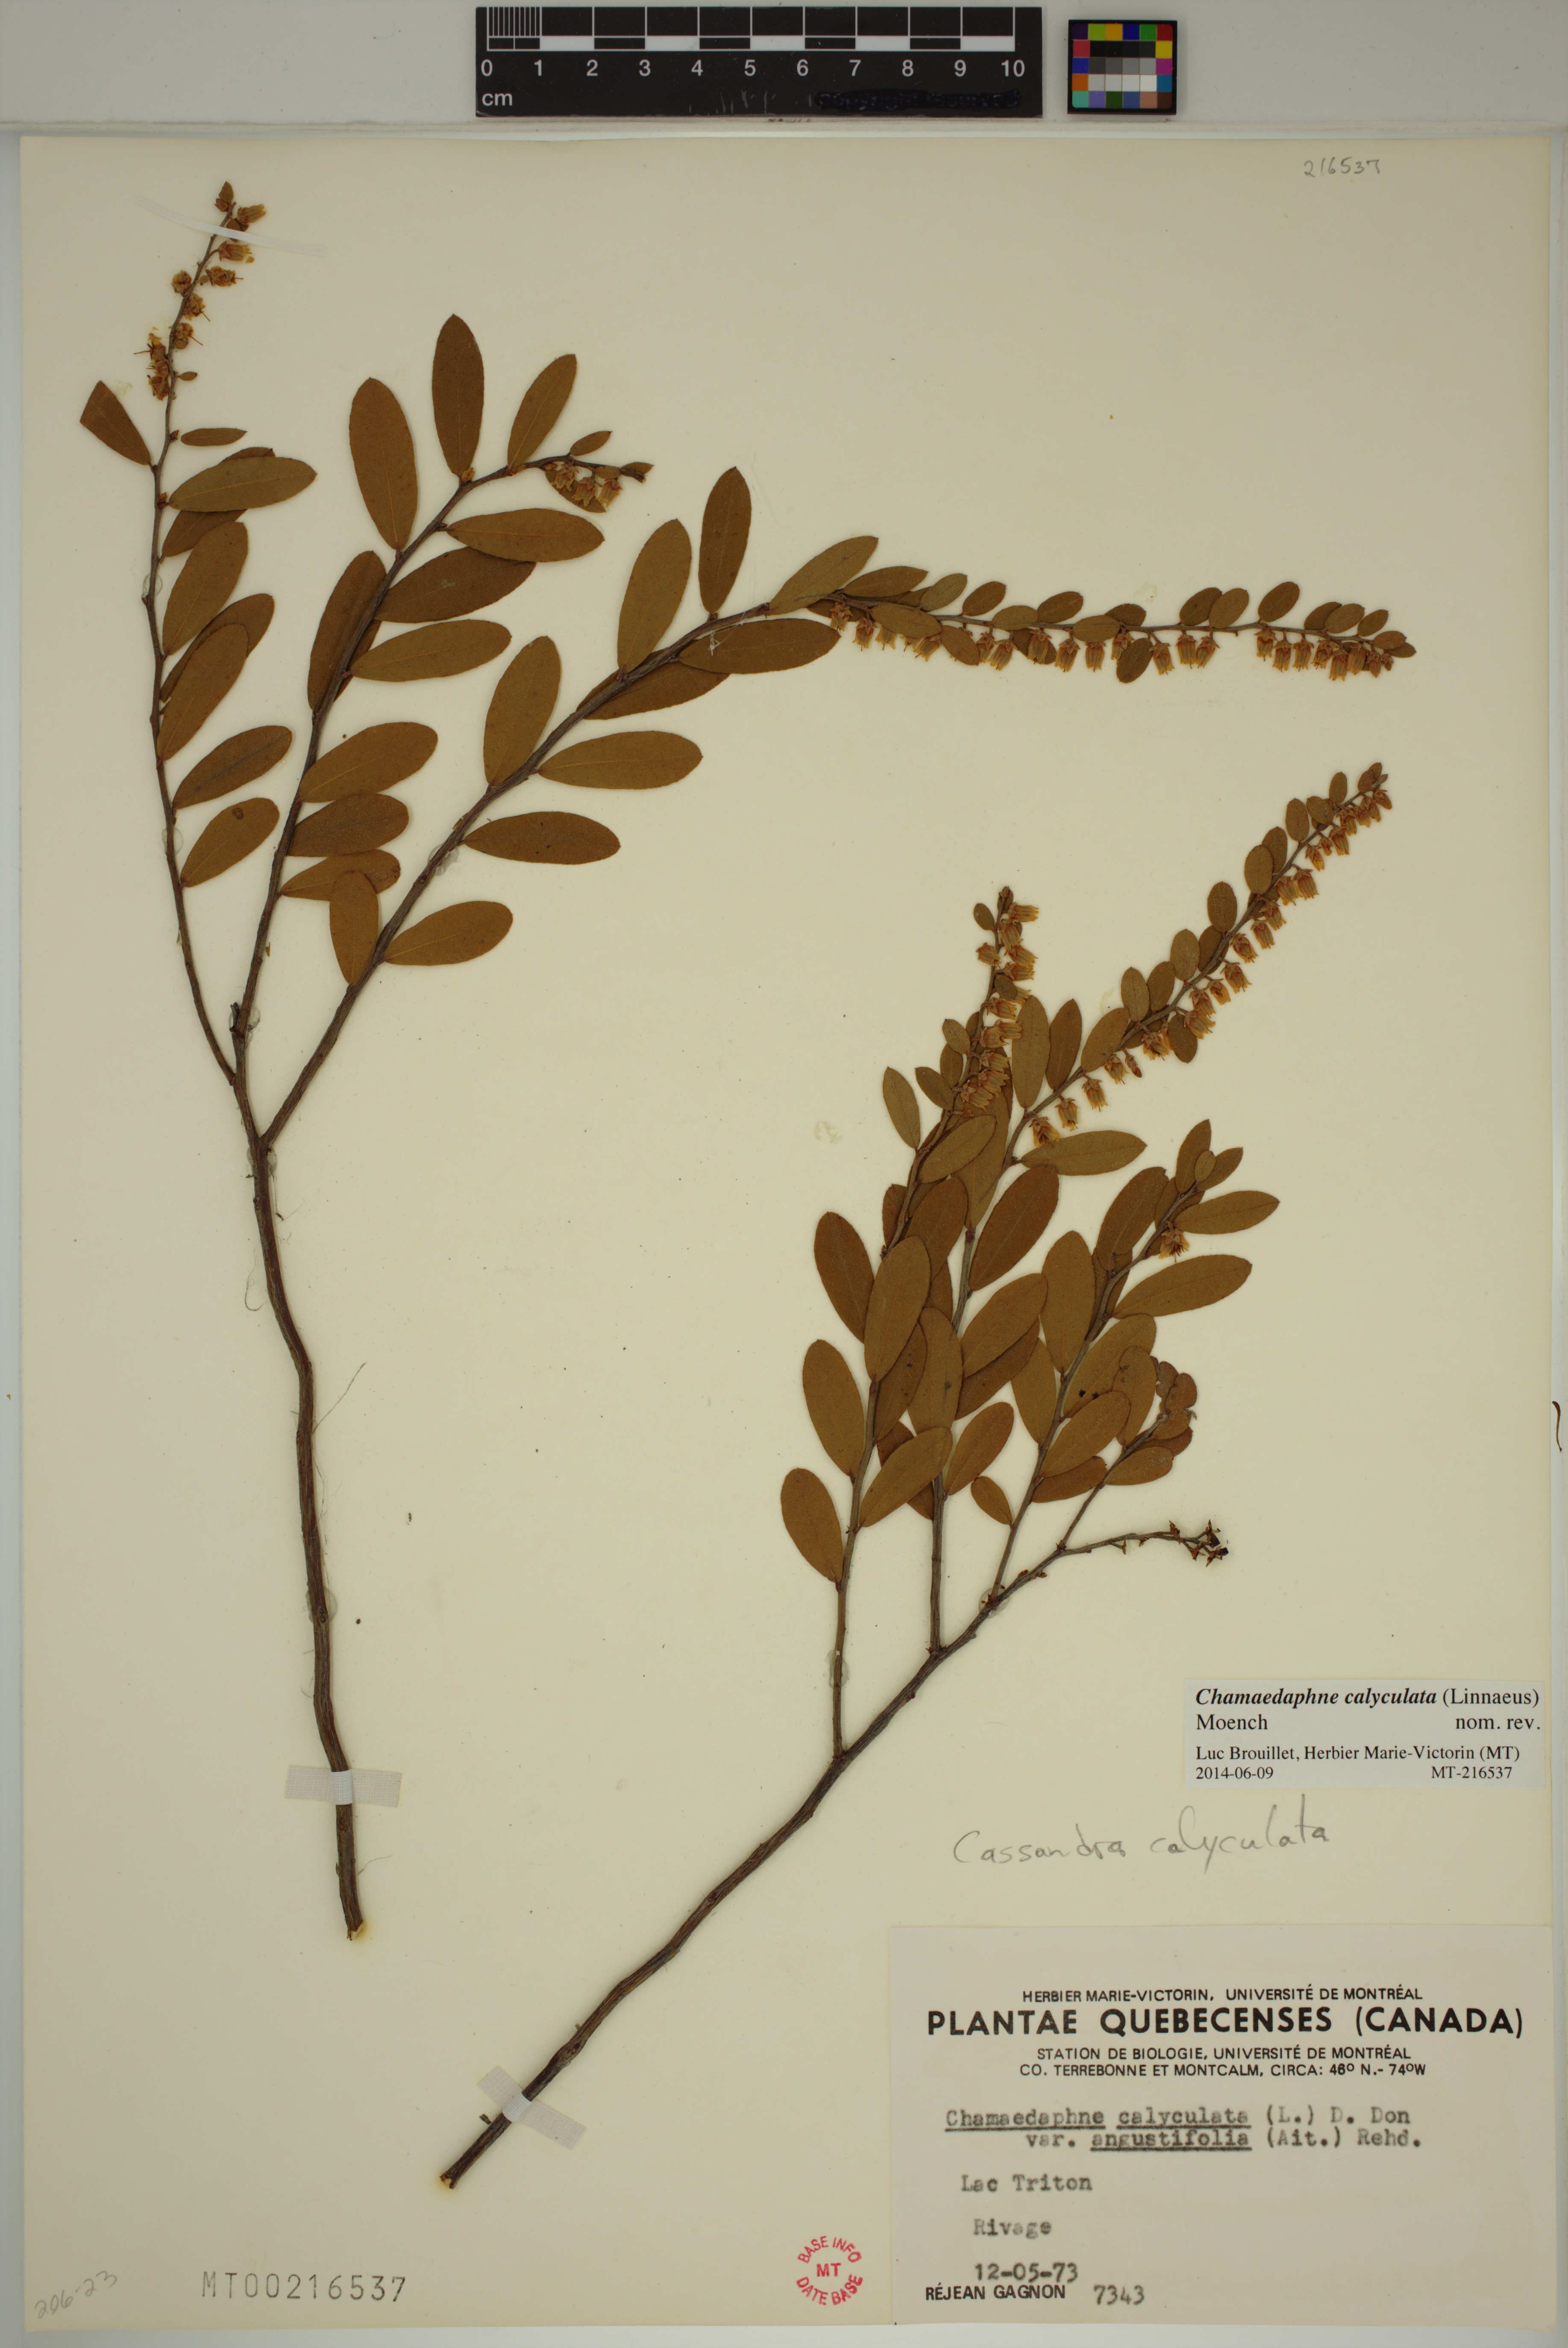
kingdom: Plantae
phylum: Tracheophyta
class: Magnoliopsida
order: Ericales
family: Ericaceae
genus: Chamaedaphne
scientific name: Chamaedaphne calyculata
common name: Leatherleaf
